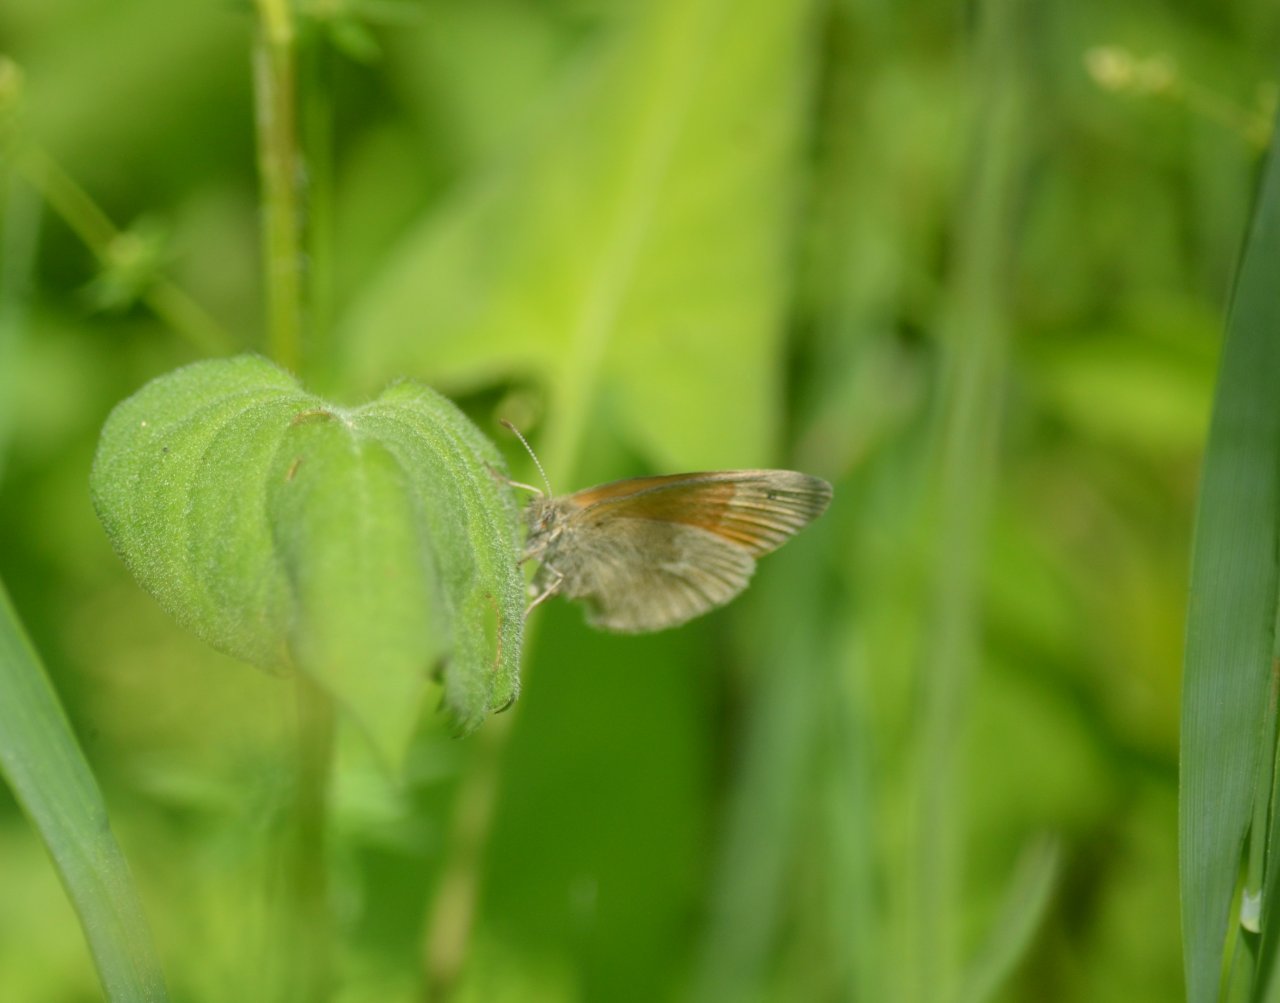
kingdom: Animalia
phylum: Arthropoda
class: Insecta
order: Lepidoptera
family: Nymphalidae
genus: Coenonympha
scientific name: Coenonympha tullia
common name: Large Heath
